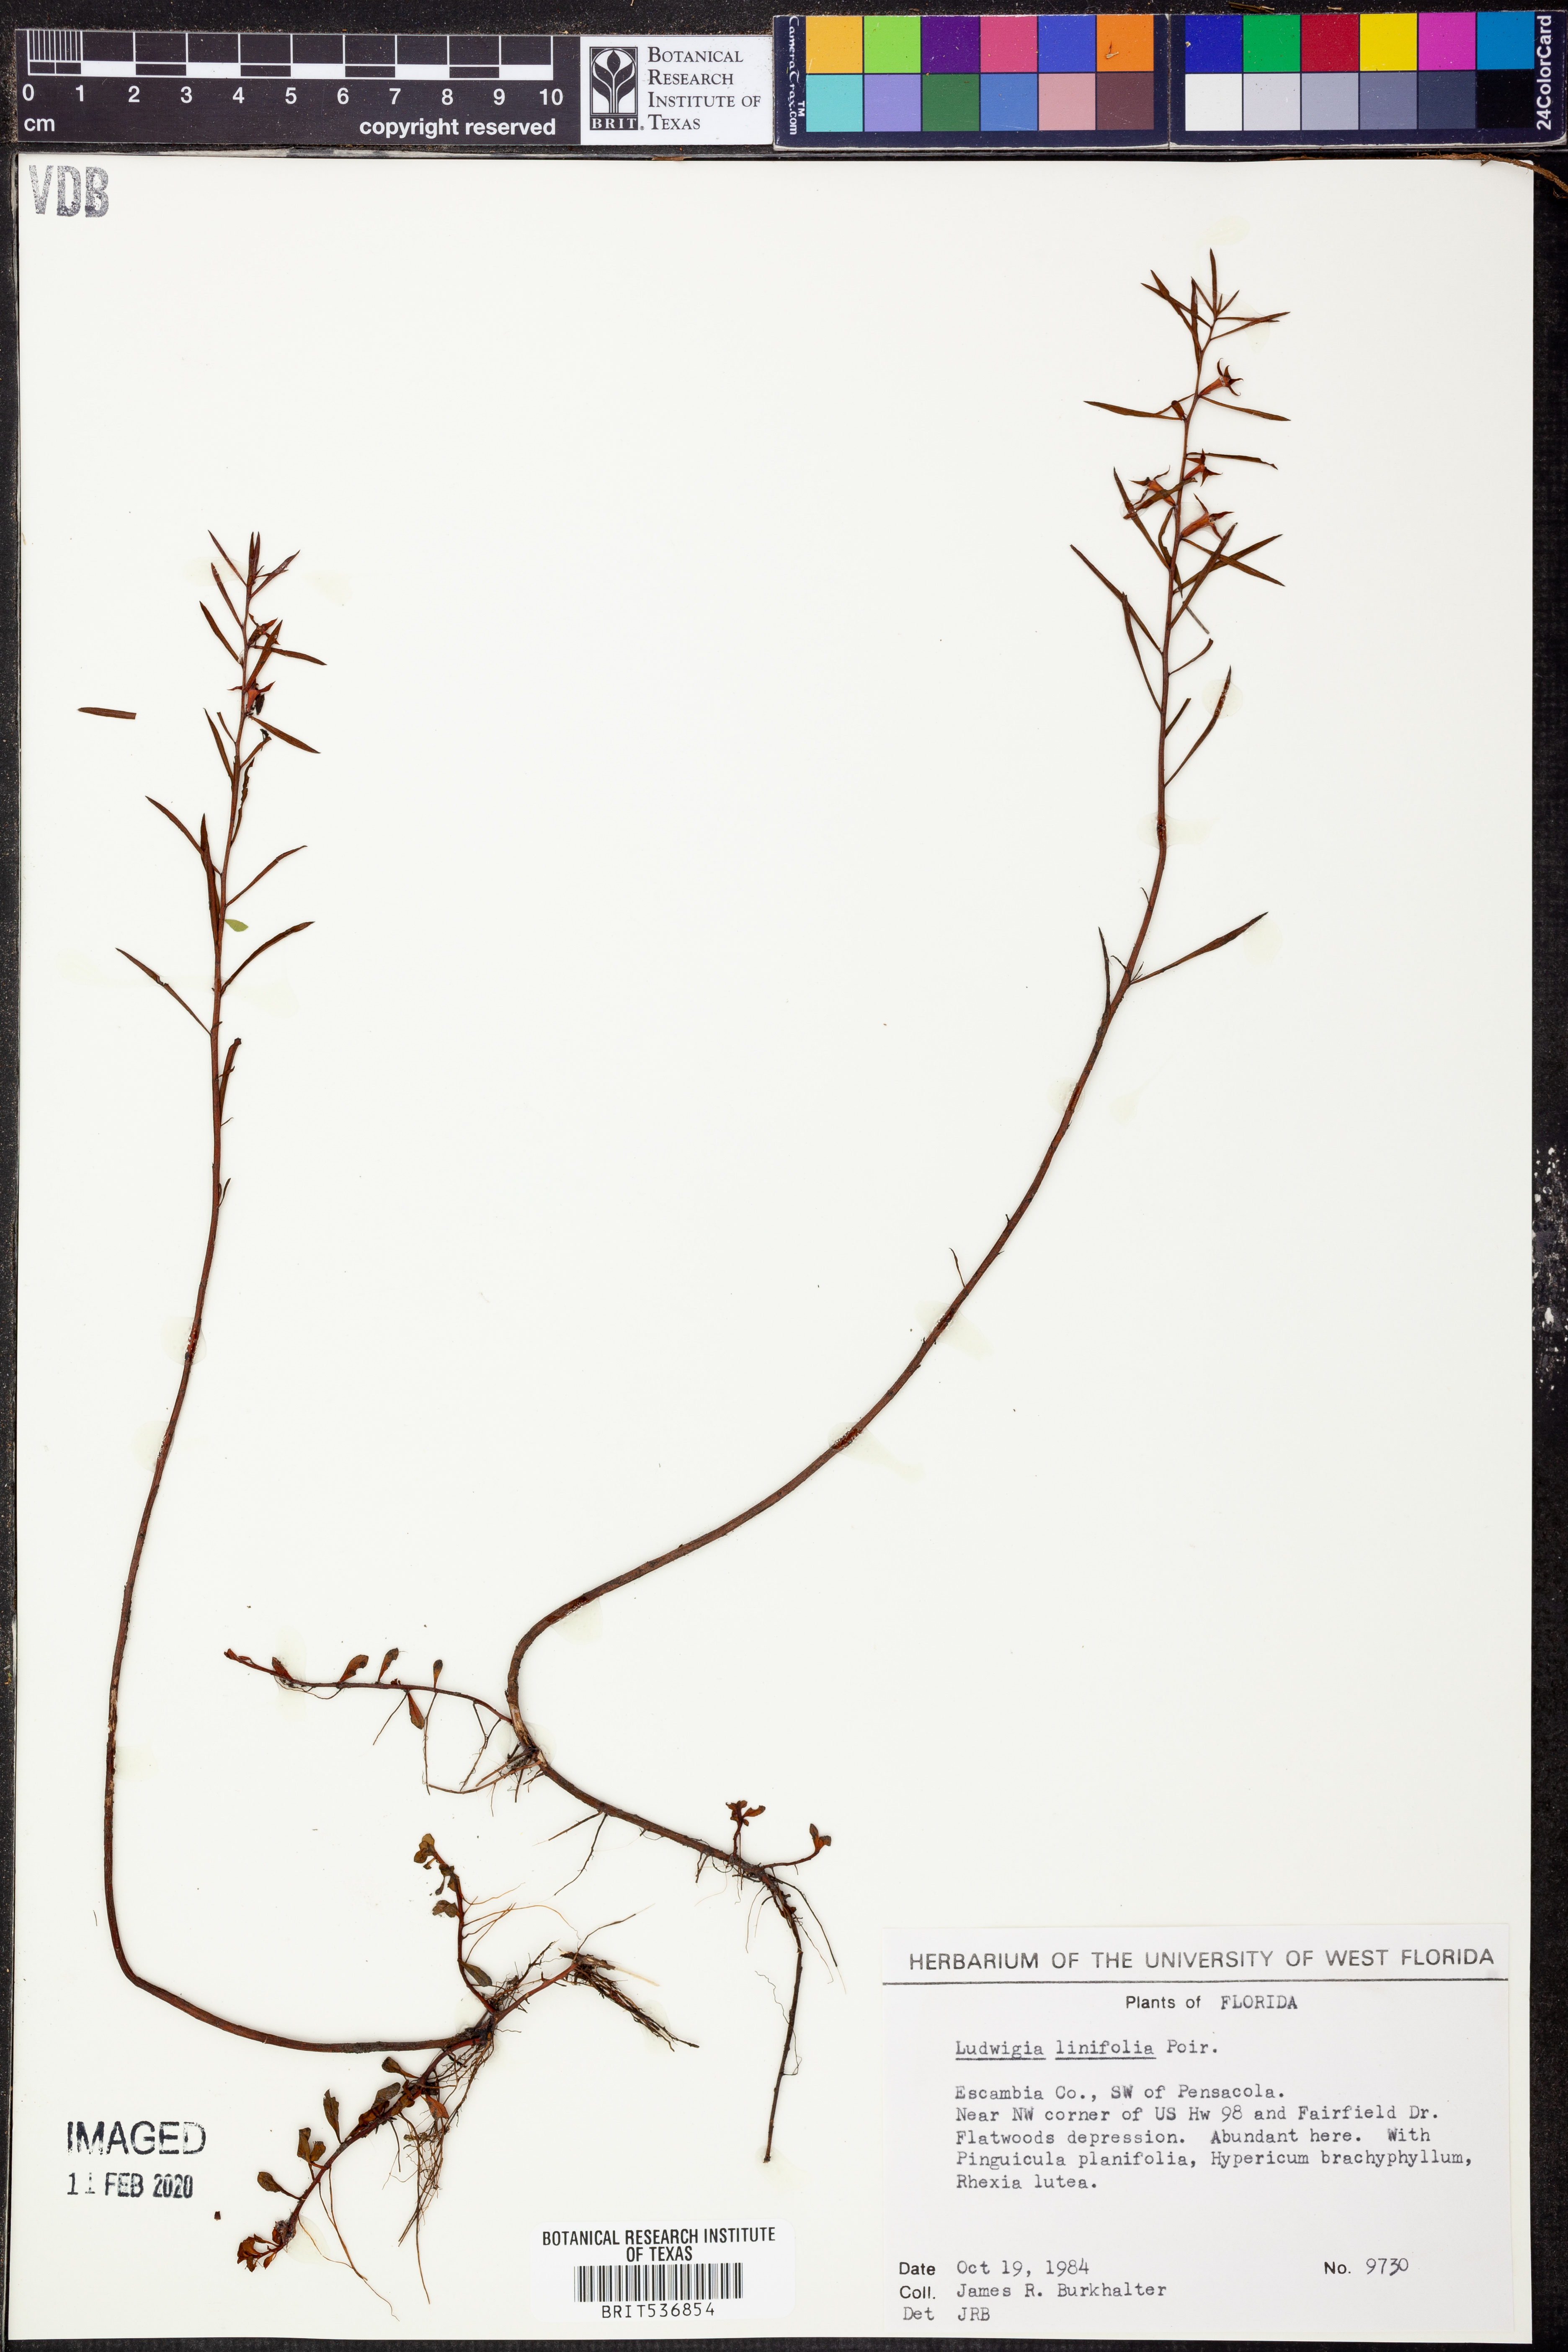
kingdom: Plantae
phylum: Tracheophyta
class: Magnoliopsida
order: Myrtales
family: Onagraceae
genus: Ludwigia
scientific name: Ludwigia linifolia
